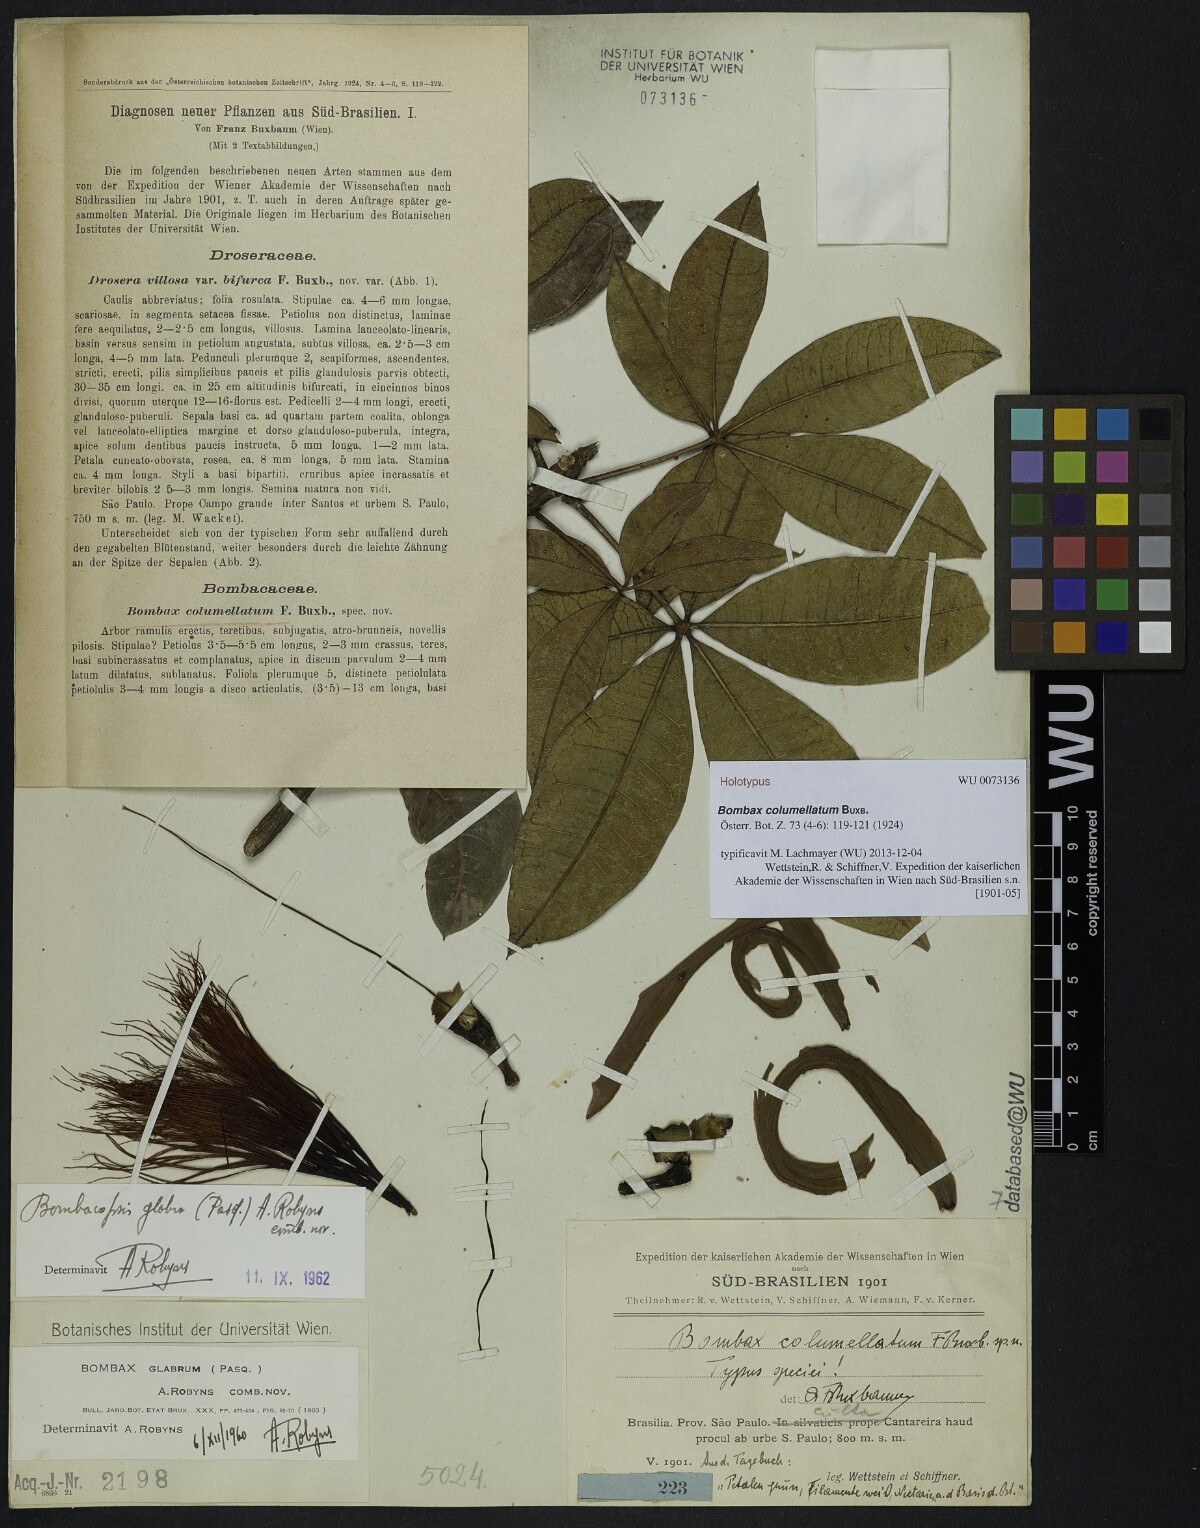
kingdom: Plantae
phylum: Tracheophyta
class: Magnoliopsida
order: Malvales
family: Malvaceae
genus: Pachira
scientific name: Pachira glabra
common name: Moneytree
